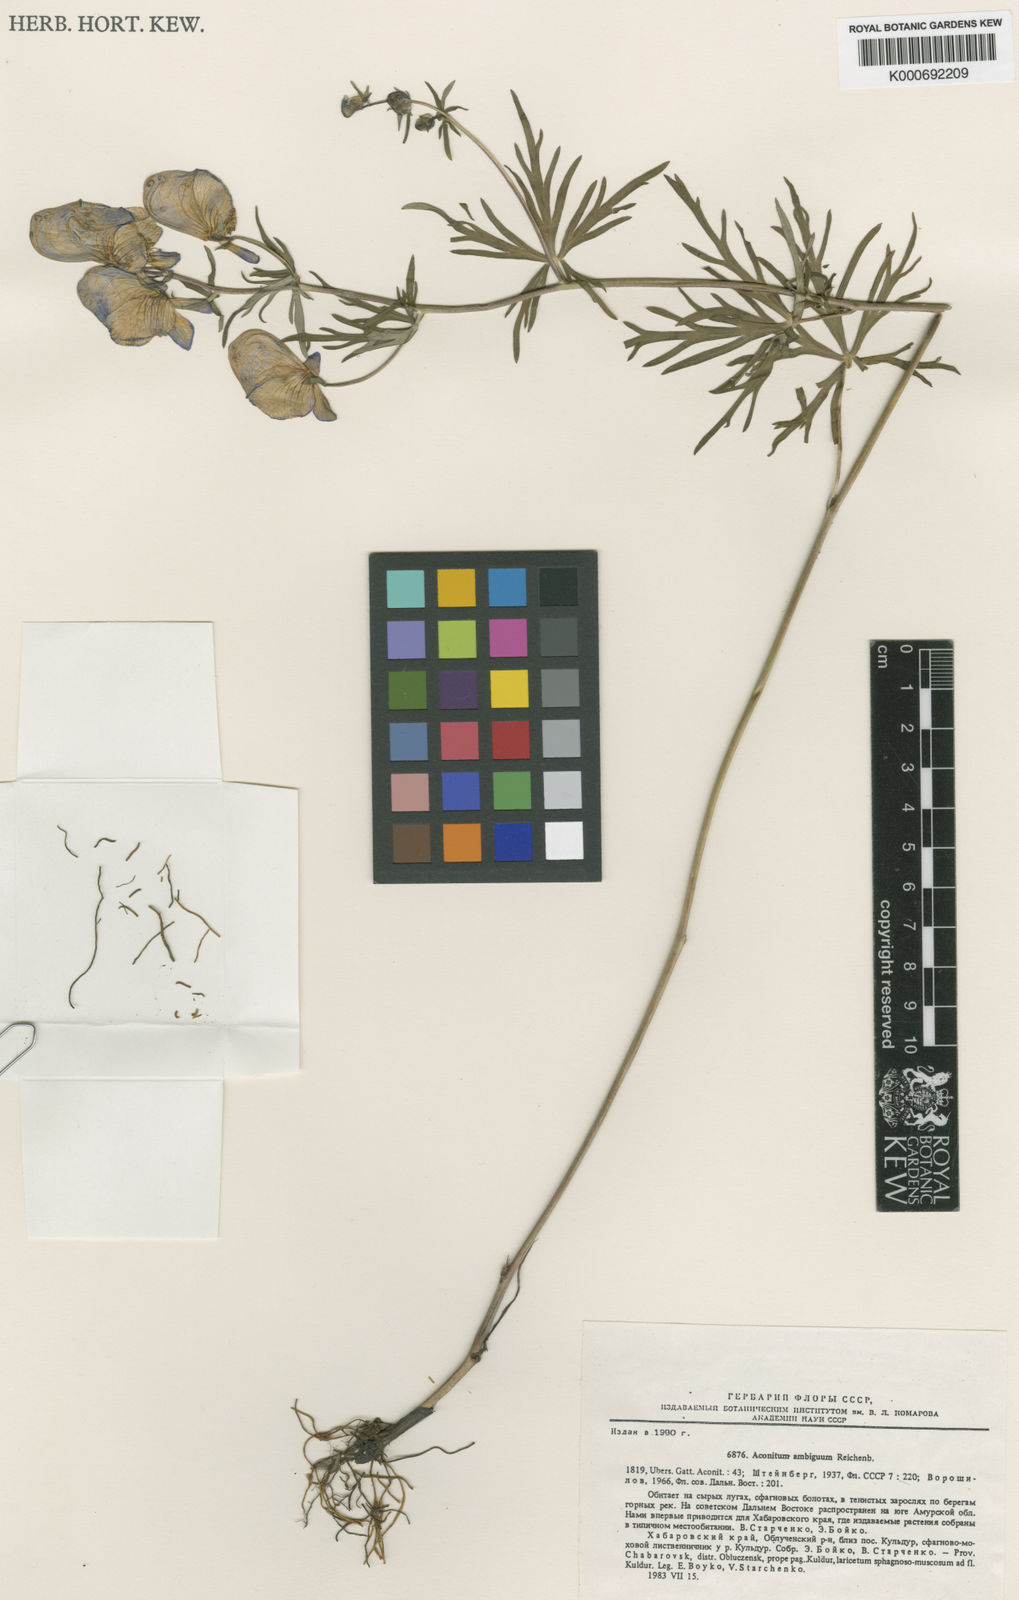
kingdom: Plantae
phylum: Tracheophyta
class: Magnoliopsida
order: Ranunculales
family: Ranunculaceae
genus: Aconitum
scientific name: Aconitum ambiguum
